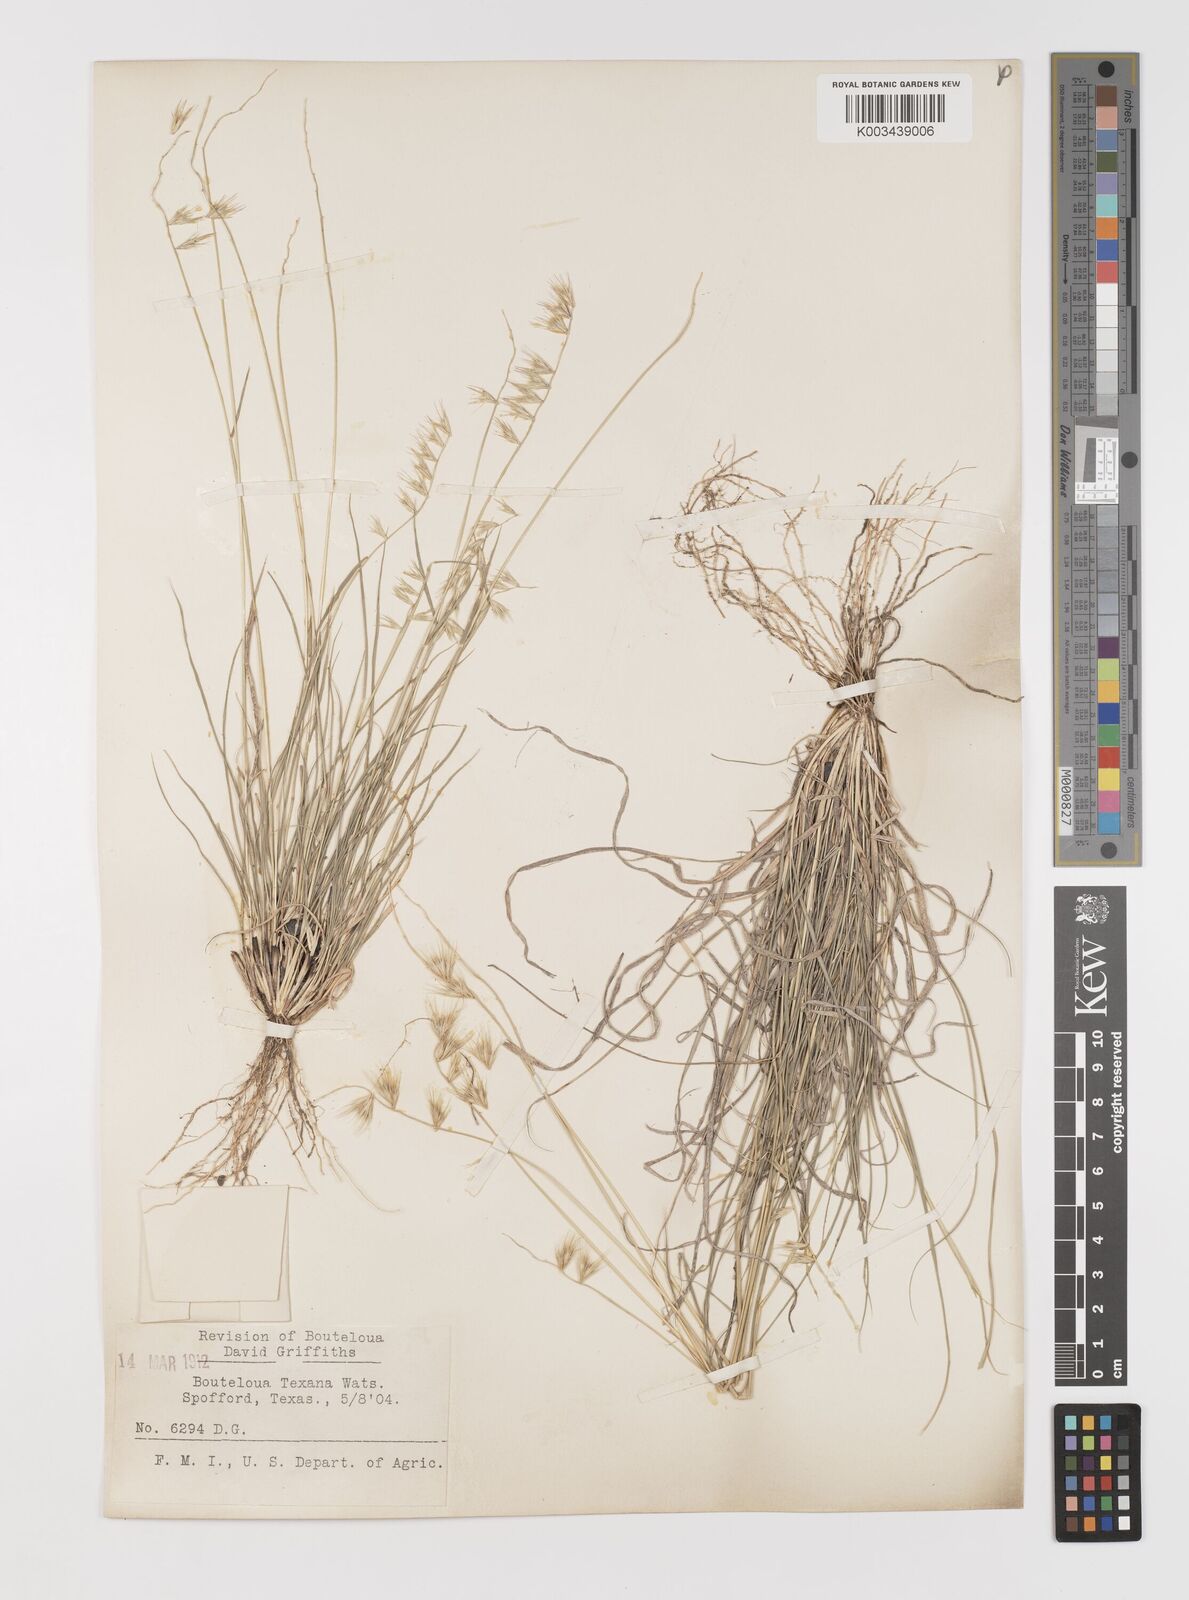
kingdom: Plantae
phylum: Tracheophyta
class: Liliopsida
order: Poales
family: Poaceae
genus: Bouteloua
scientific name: Bouteloua rigidiseta
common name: Texas grama
